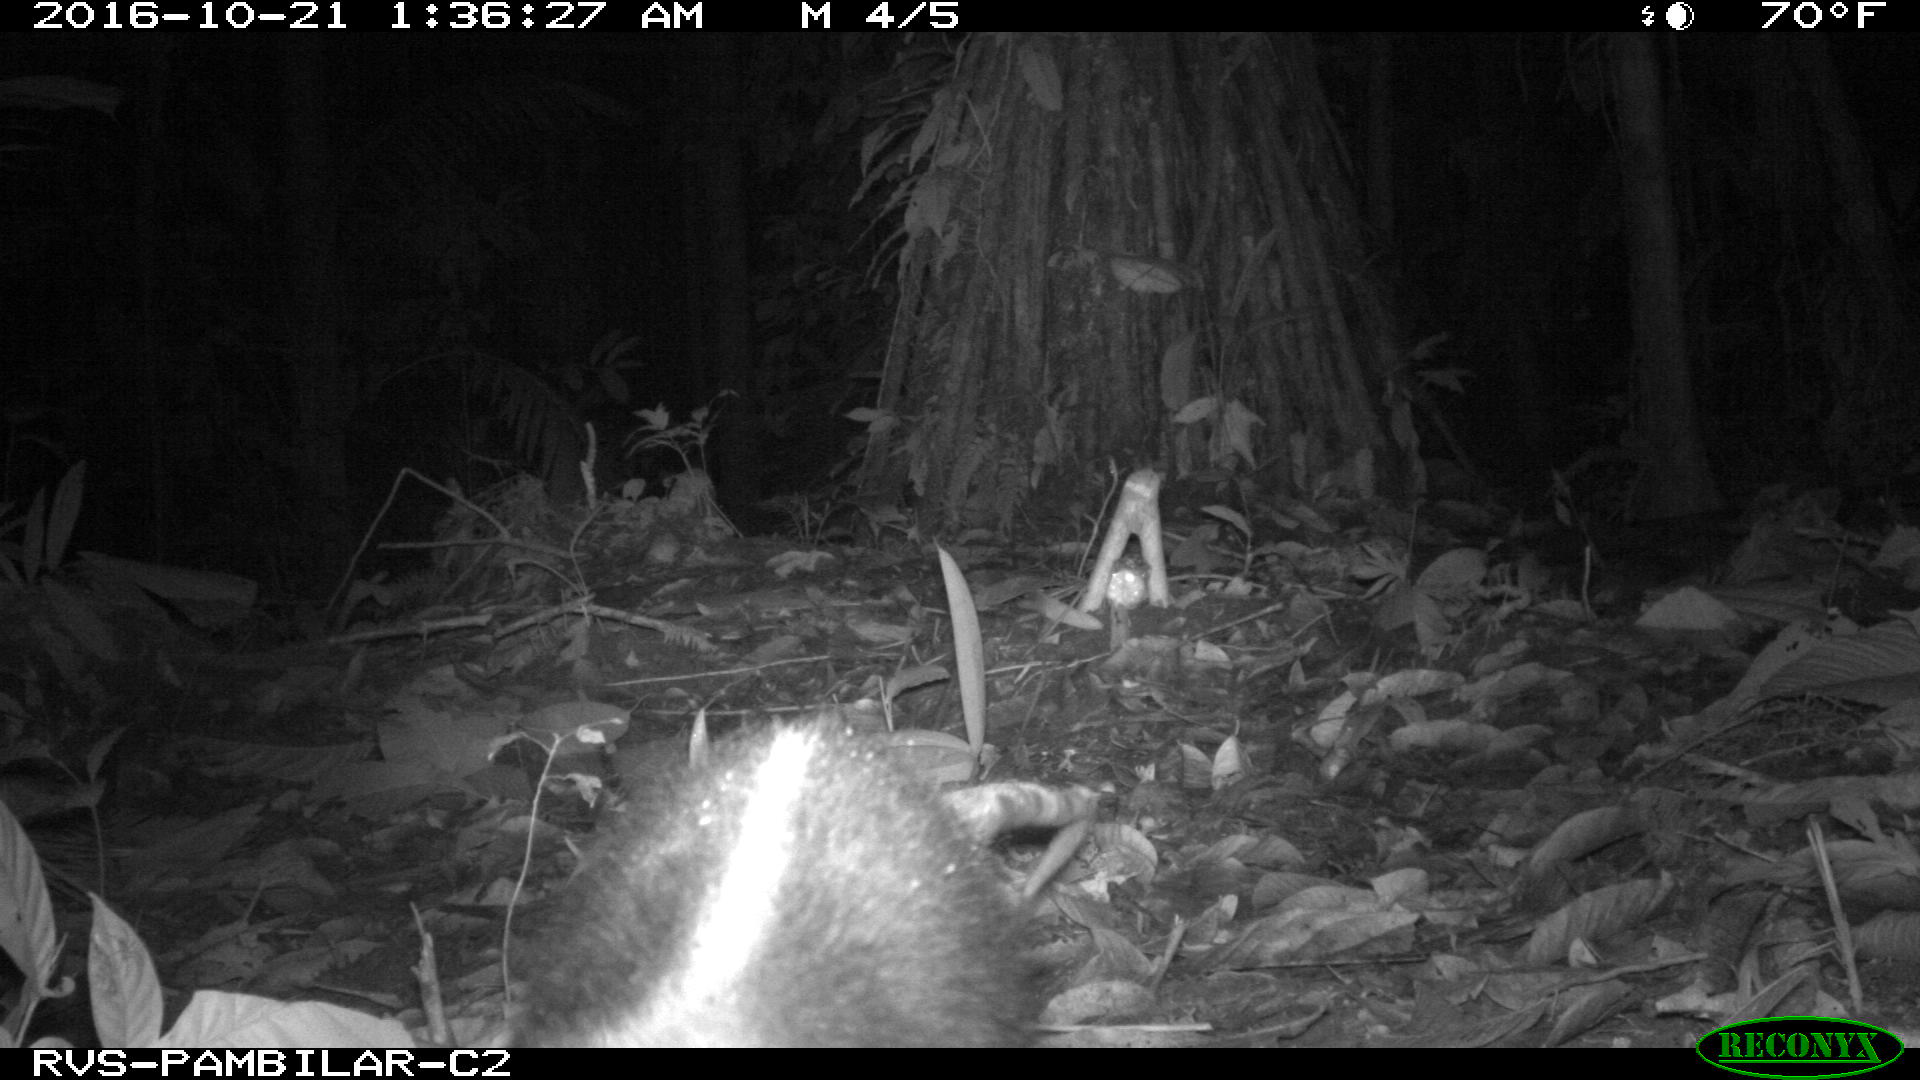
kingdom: Animalia
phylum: Chordata
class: Mammalia
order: Pilosa
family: Myrmecophagidae
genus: Tamandua
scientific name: Tamandua mexicana
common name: Northern tamandua
